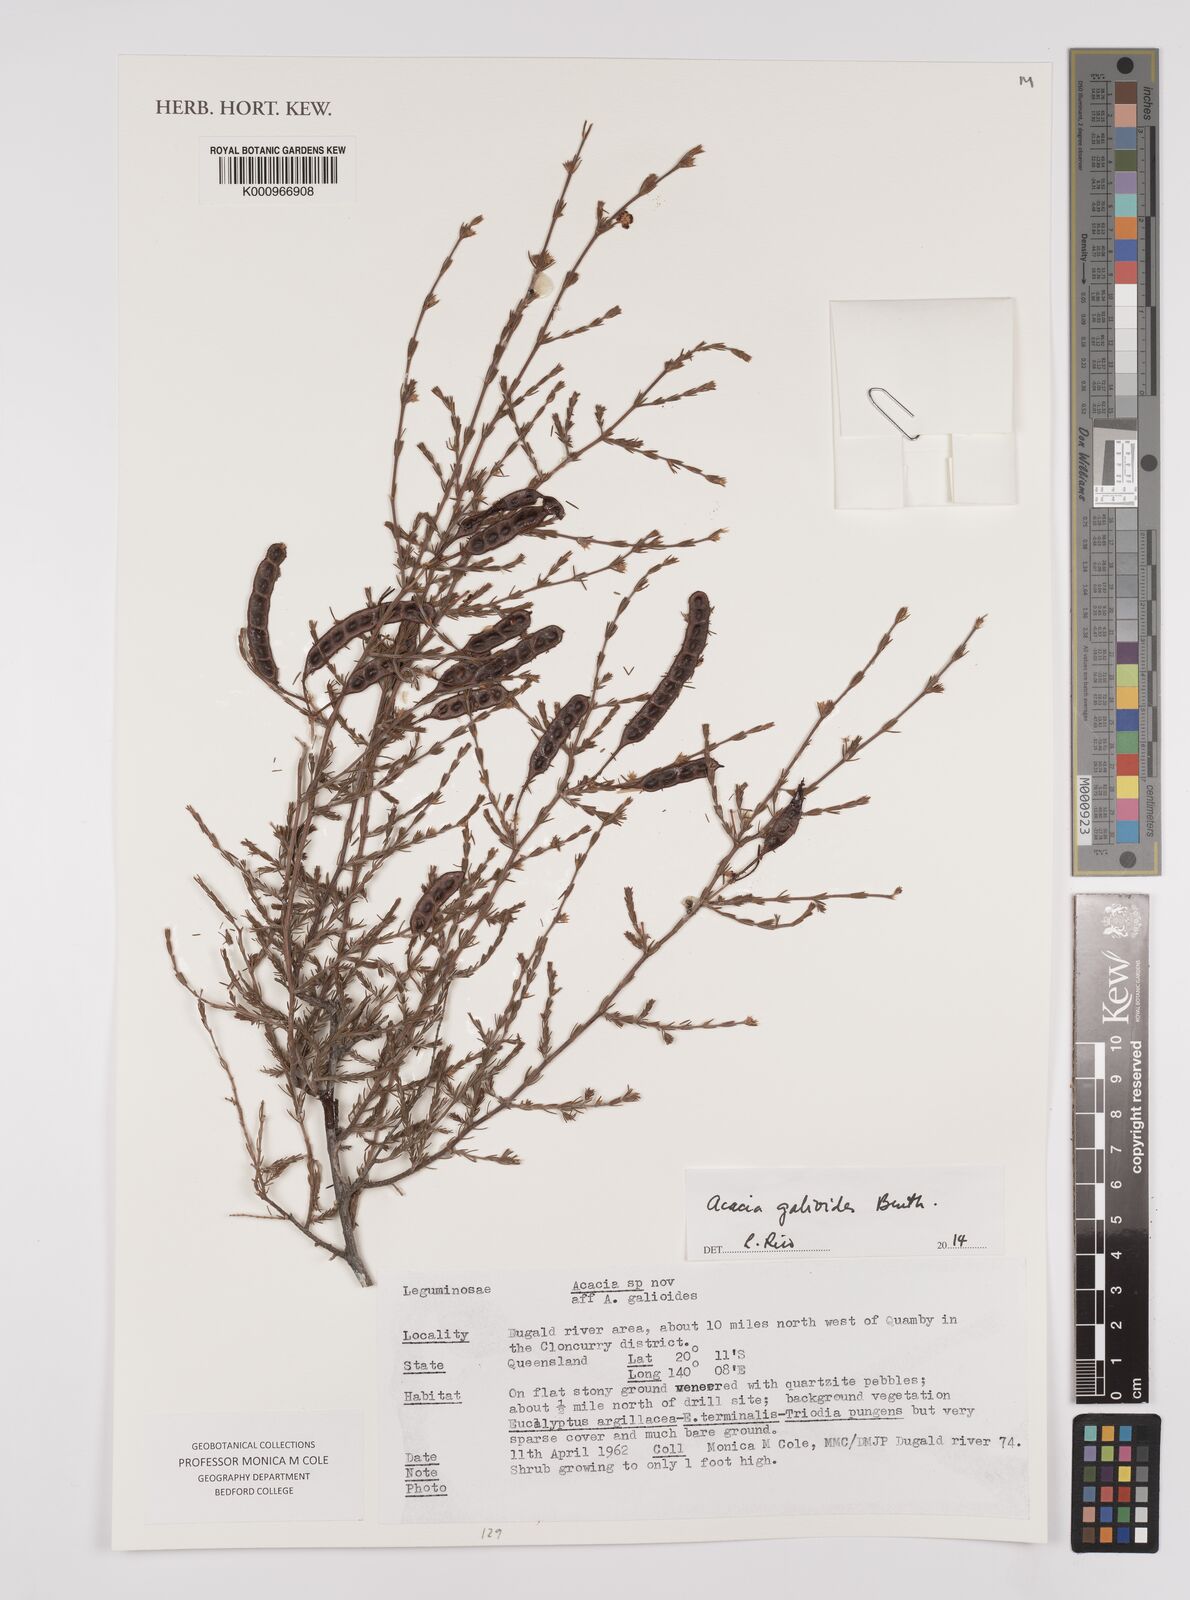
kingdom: Plantae
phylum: Tracheophyta
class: Magnoliopsida
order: Fabales
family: Fabaceae
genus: Acacia
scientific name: Acacia galioides
